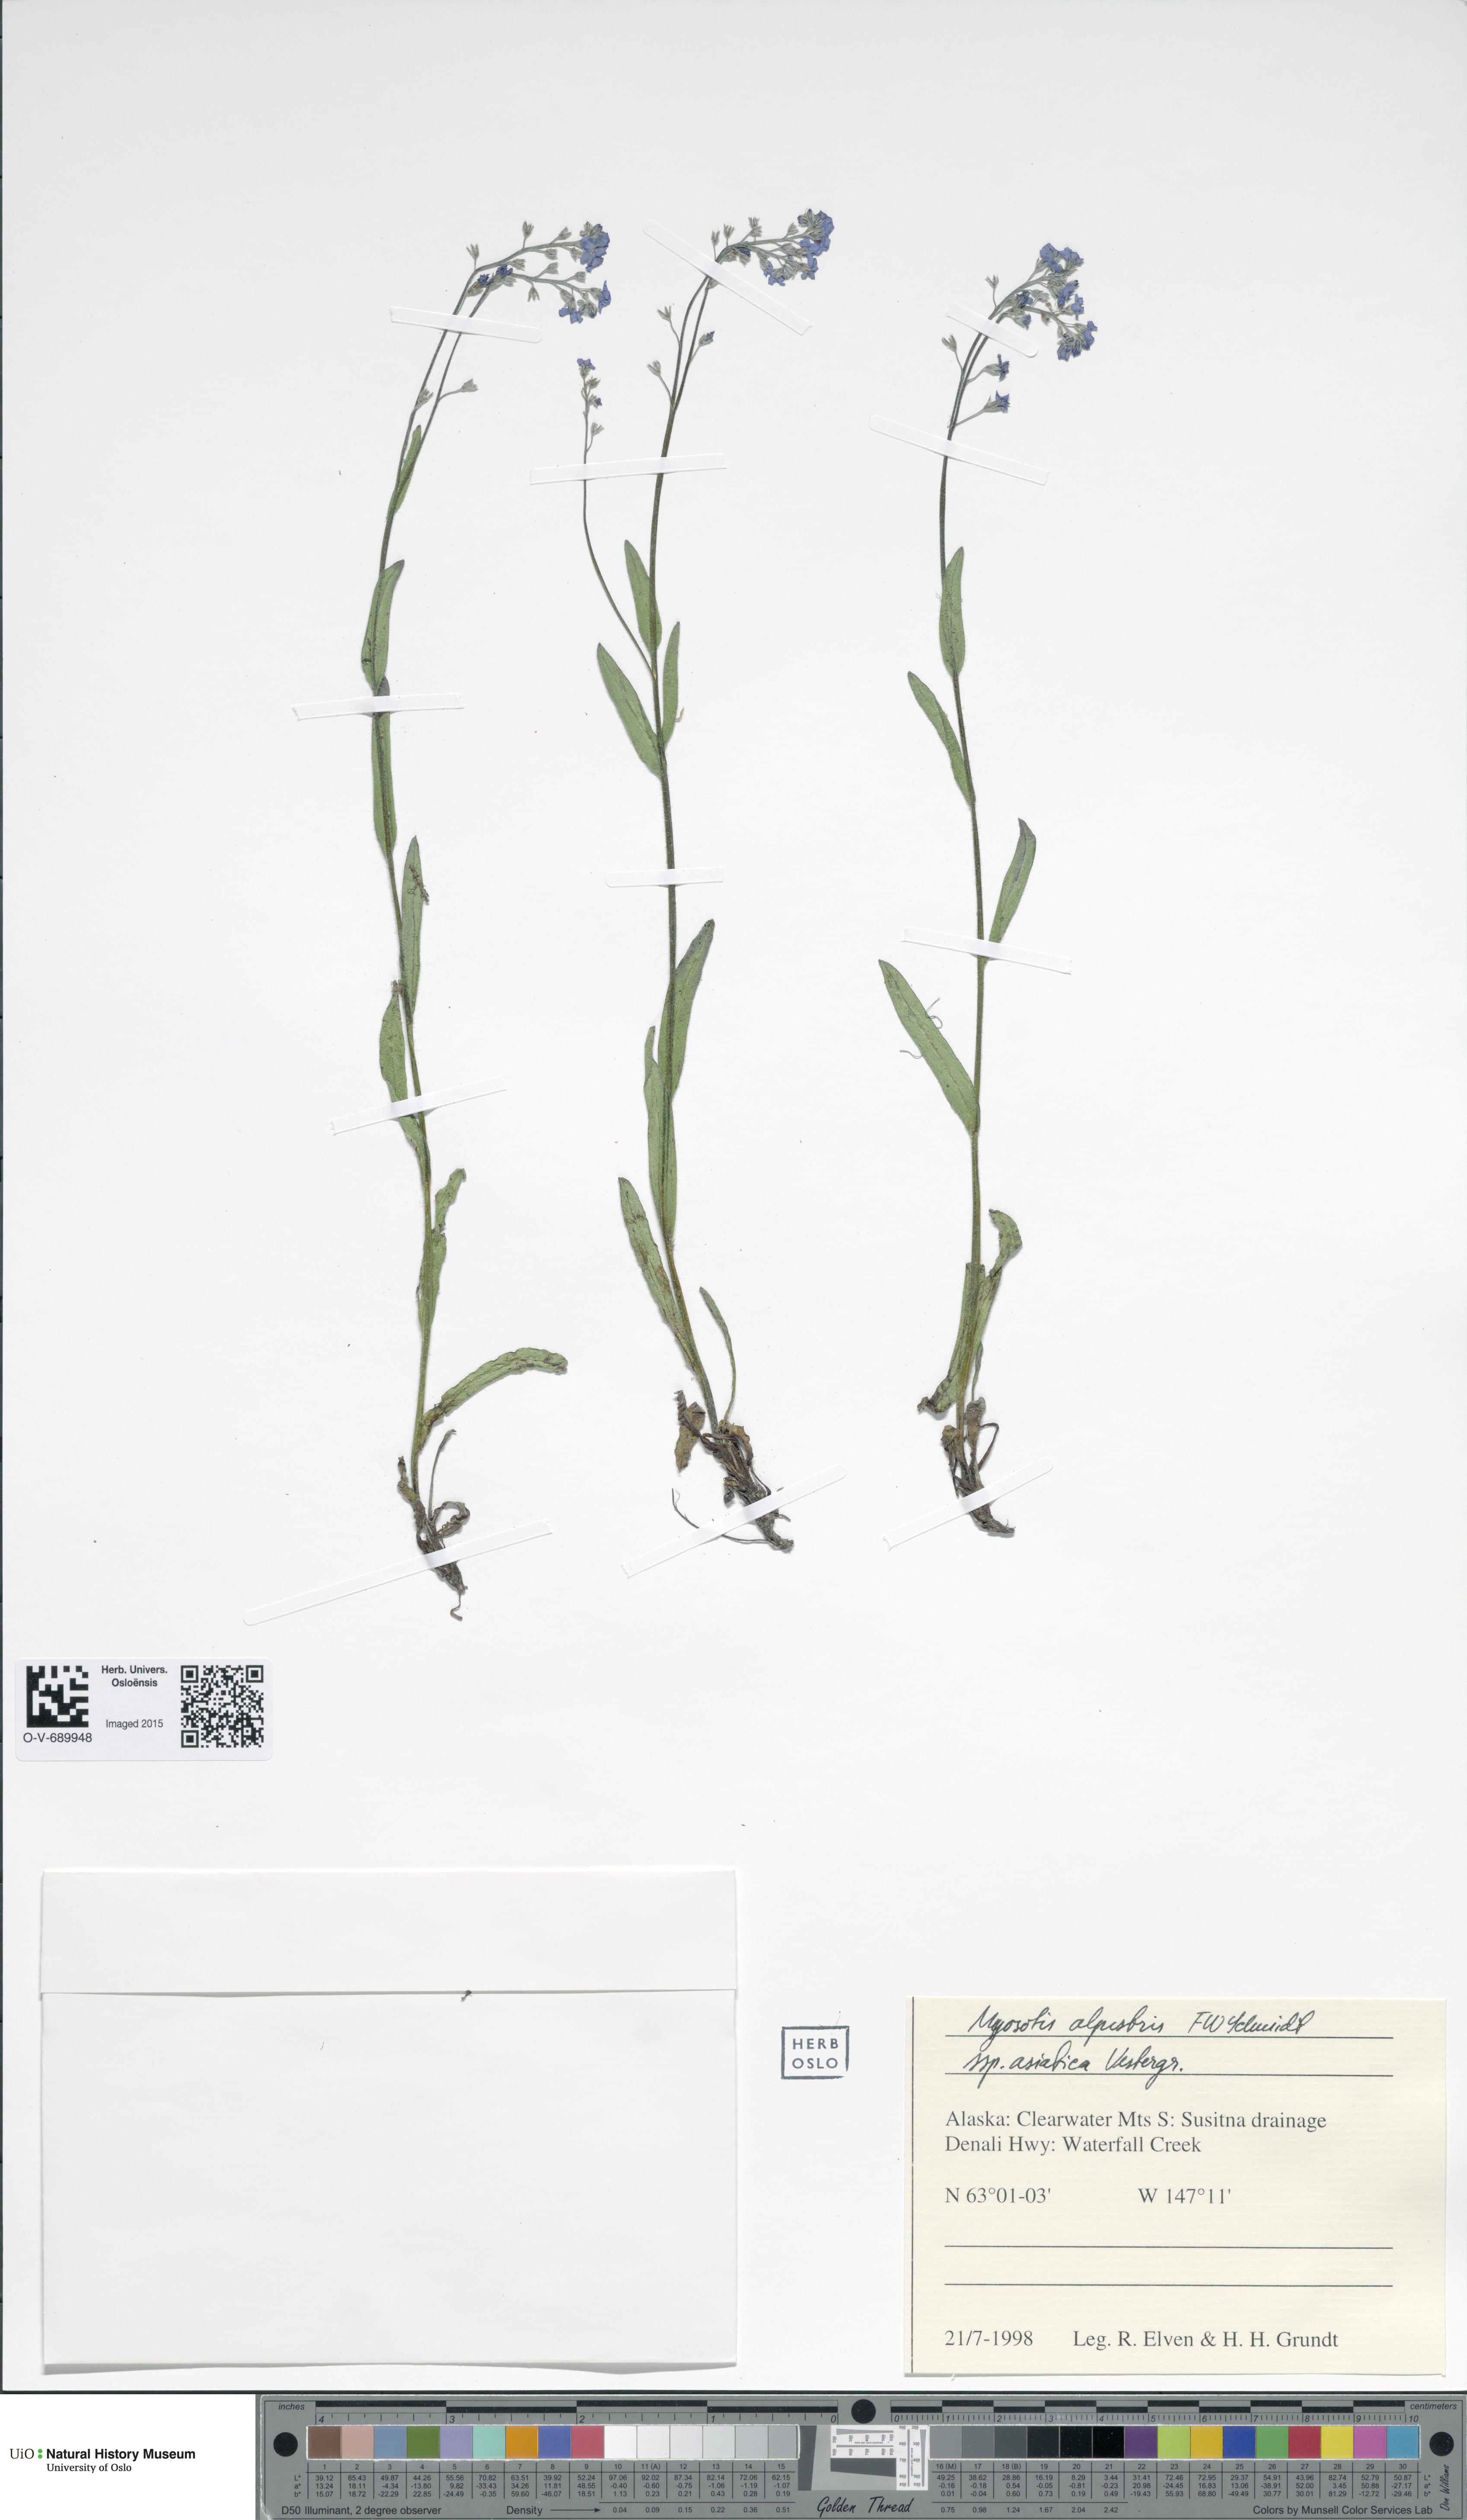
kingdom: Plantae
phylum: Tracheophyta
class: Magnoliopsida
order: Boraginales
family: Boraginaceae
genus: Myosotis
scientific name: Myosotis alpestris
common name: Alpine forget-me-not
